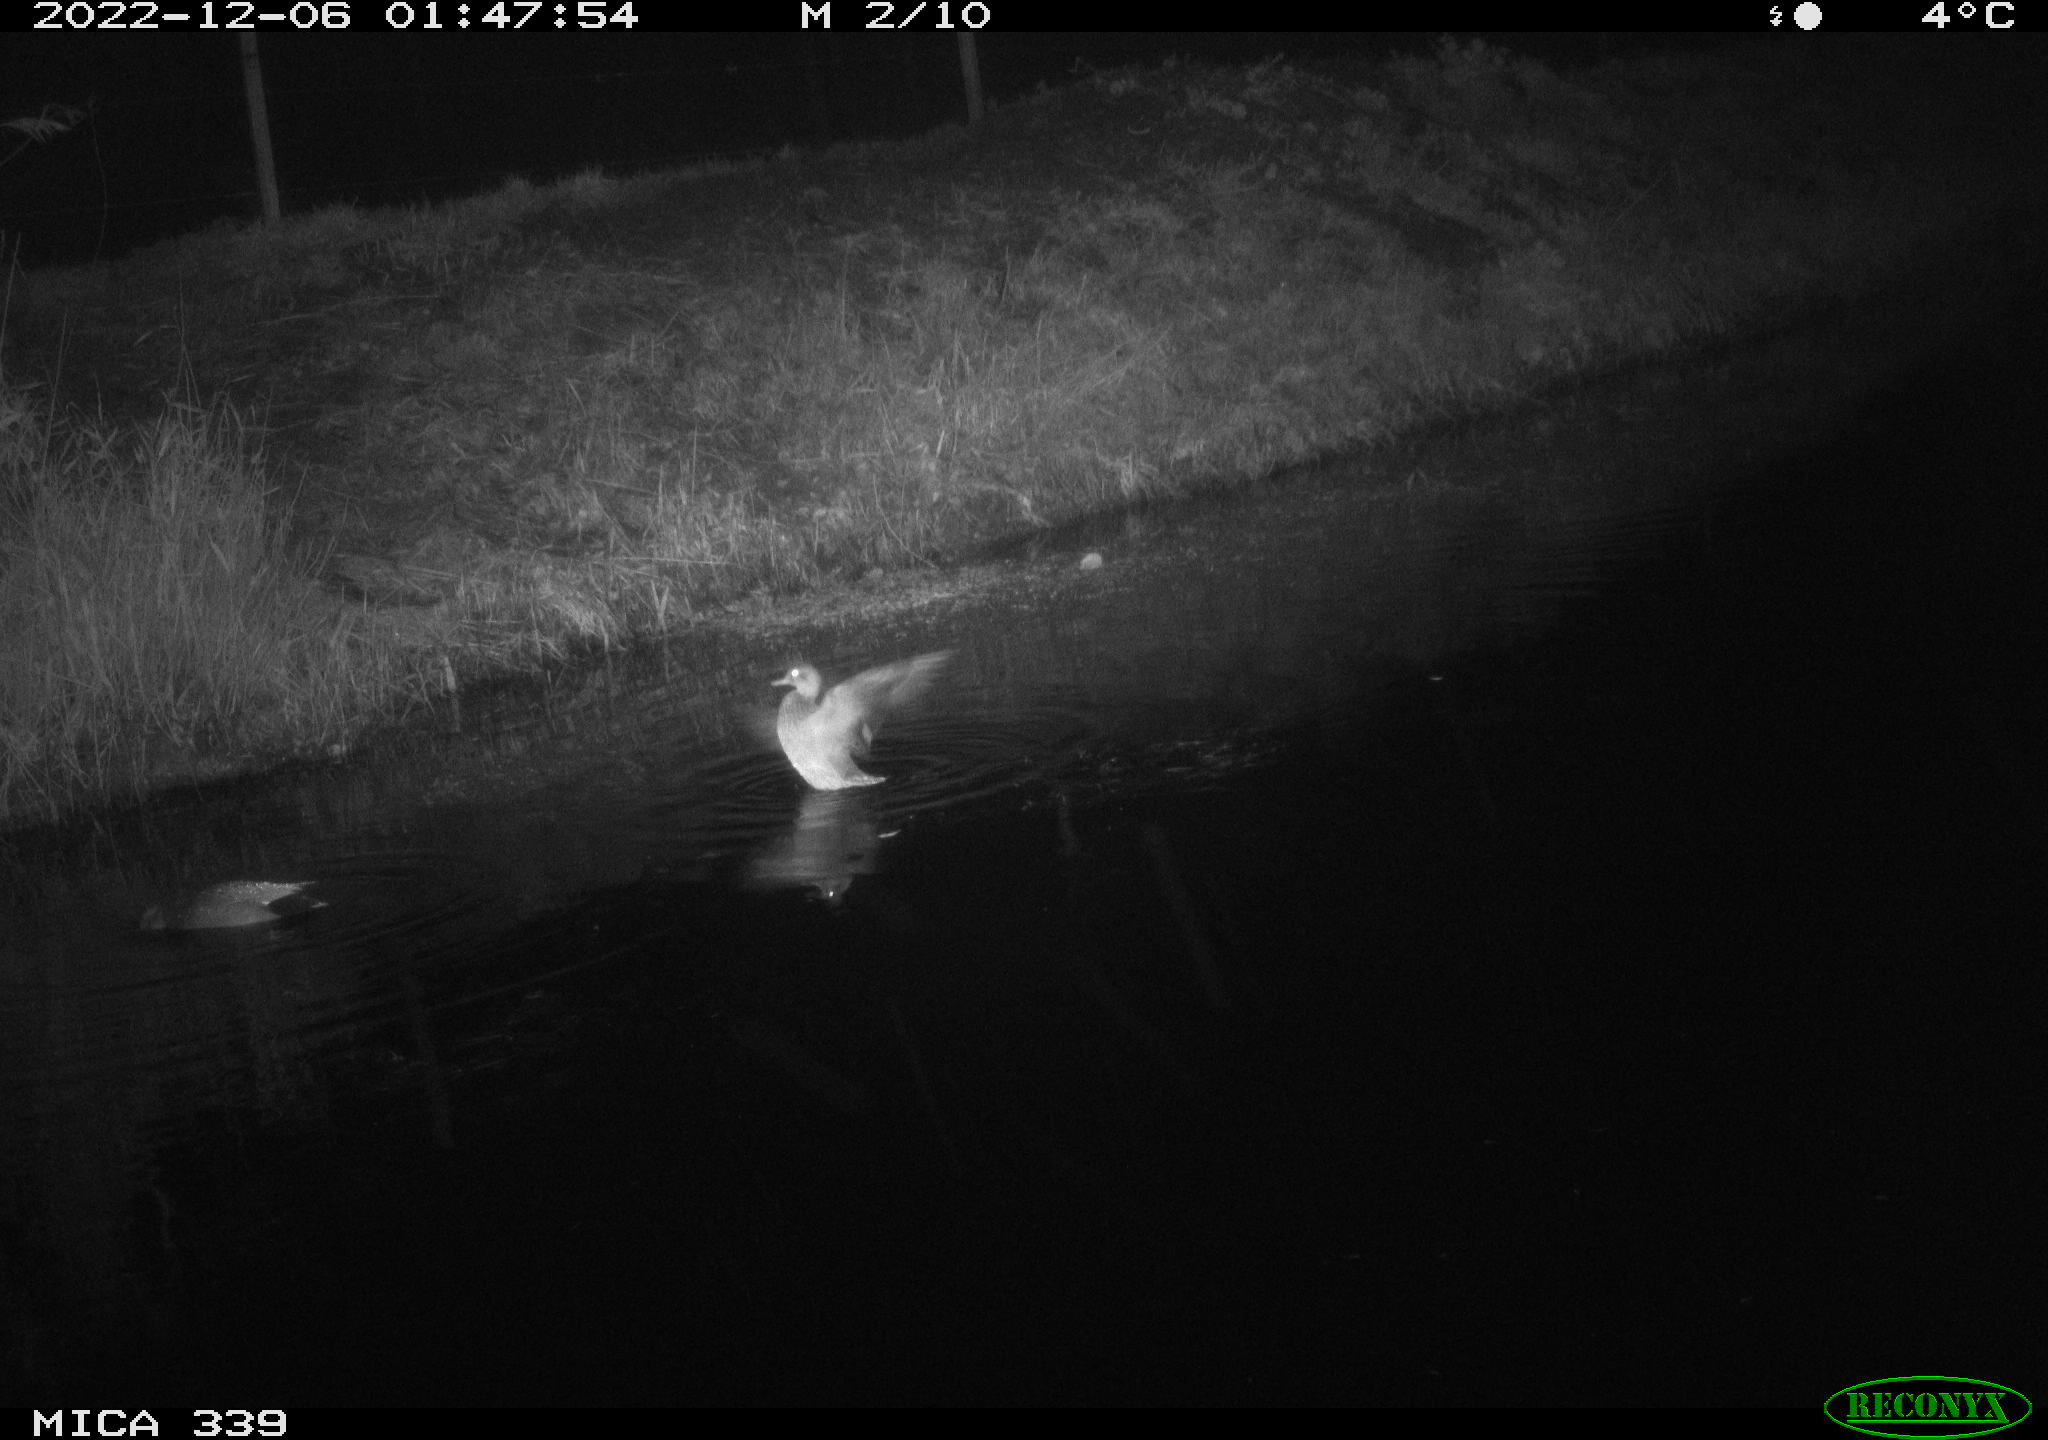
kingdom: Animalia
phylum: Chordata
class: Aves
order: Anseriformes
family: Anatidae
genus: Anas
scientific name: Anas
